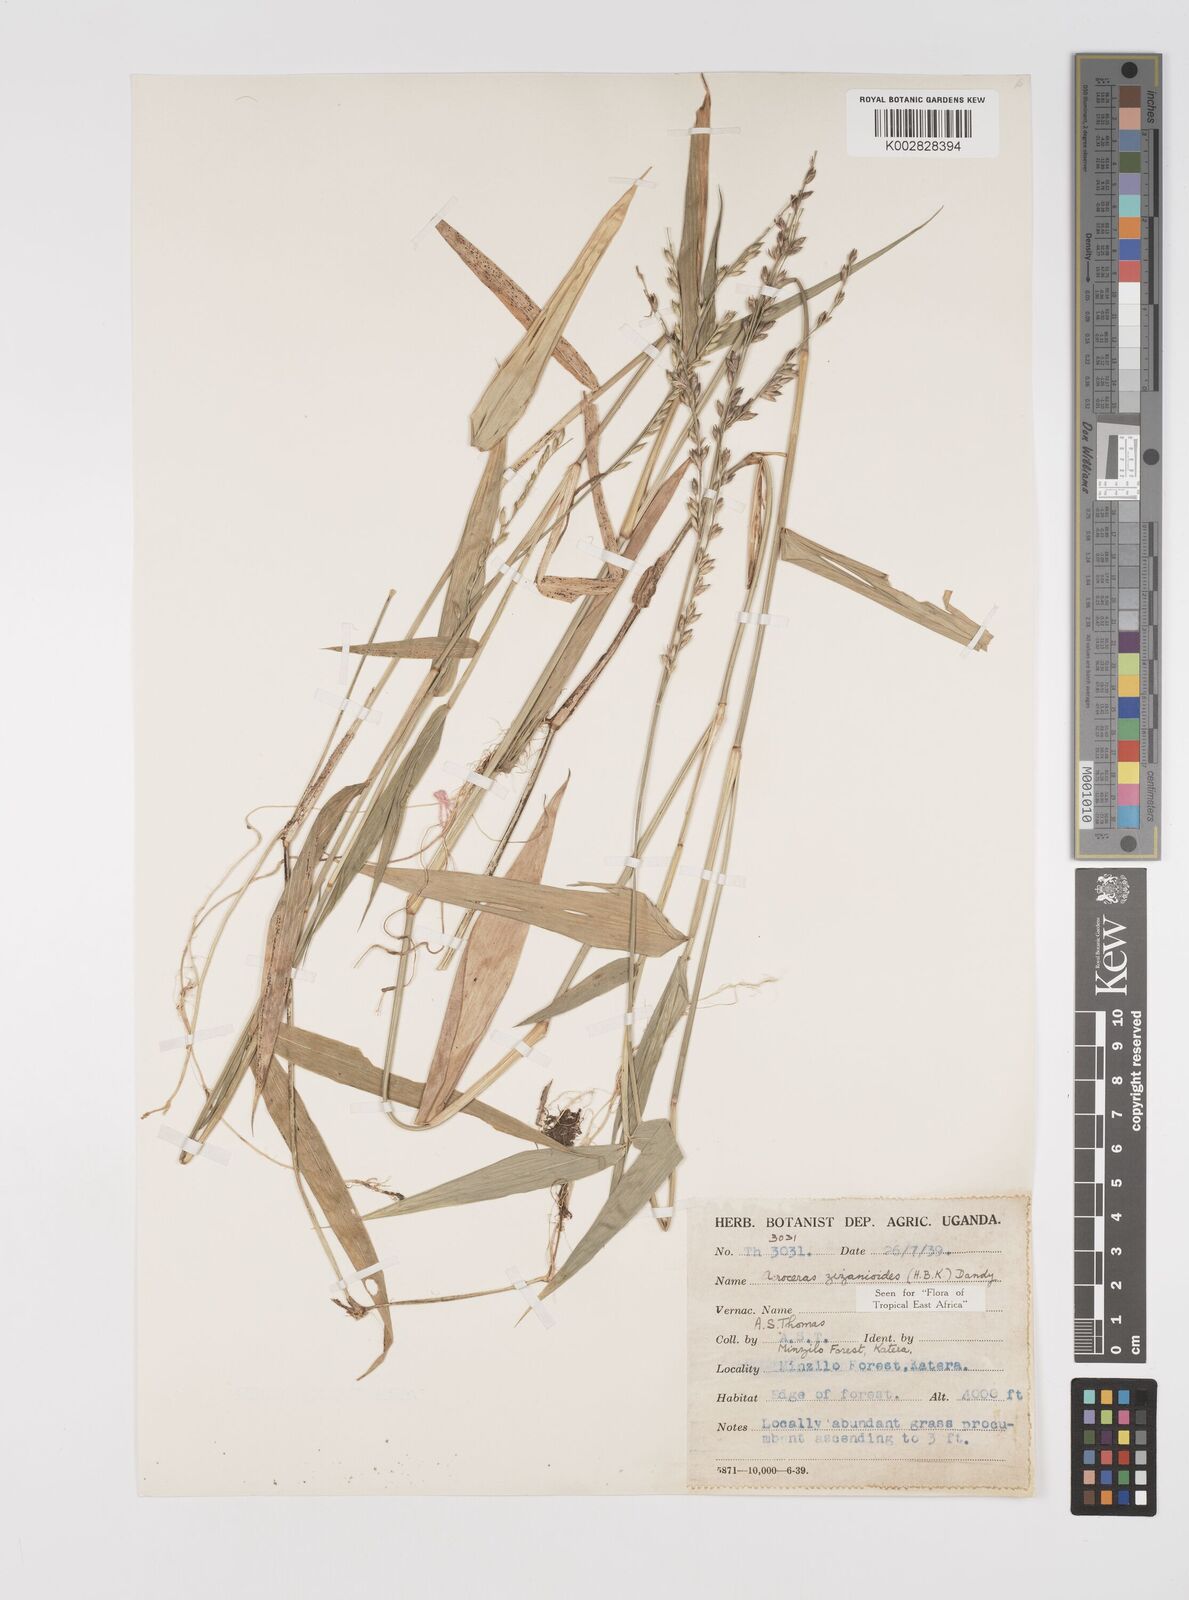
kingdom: Plantae
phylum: Tracheophyta
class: Liliopsida
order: Poales
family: Poaceae
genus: Acroceras
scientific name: Acroceras zizanioides
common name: Oat grass
